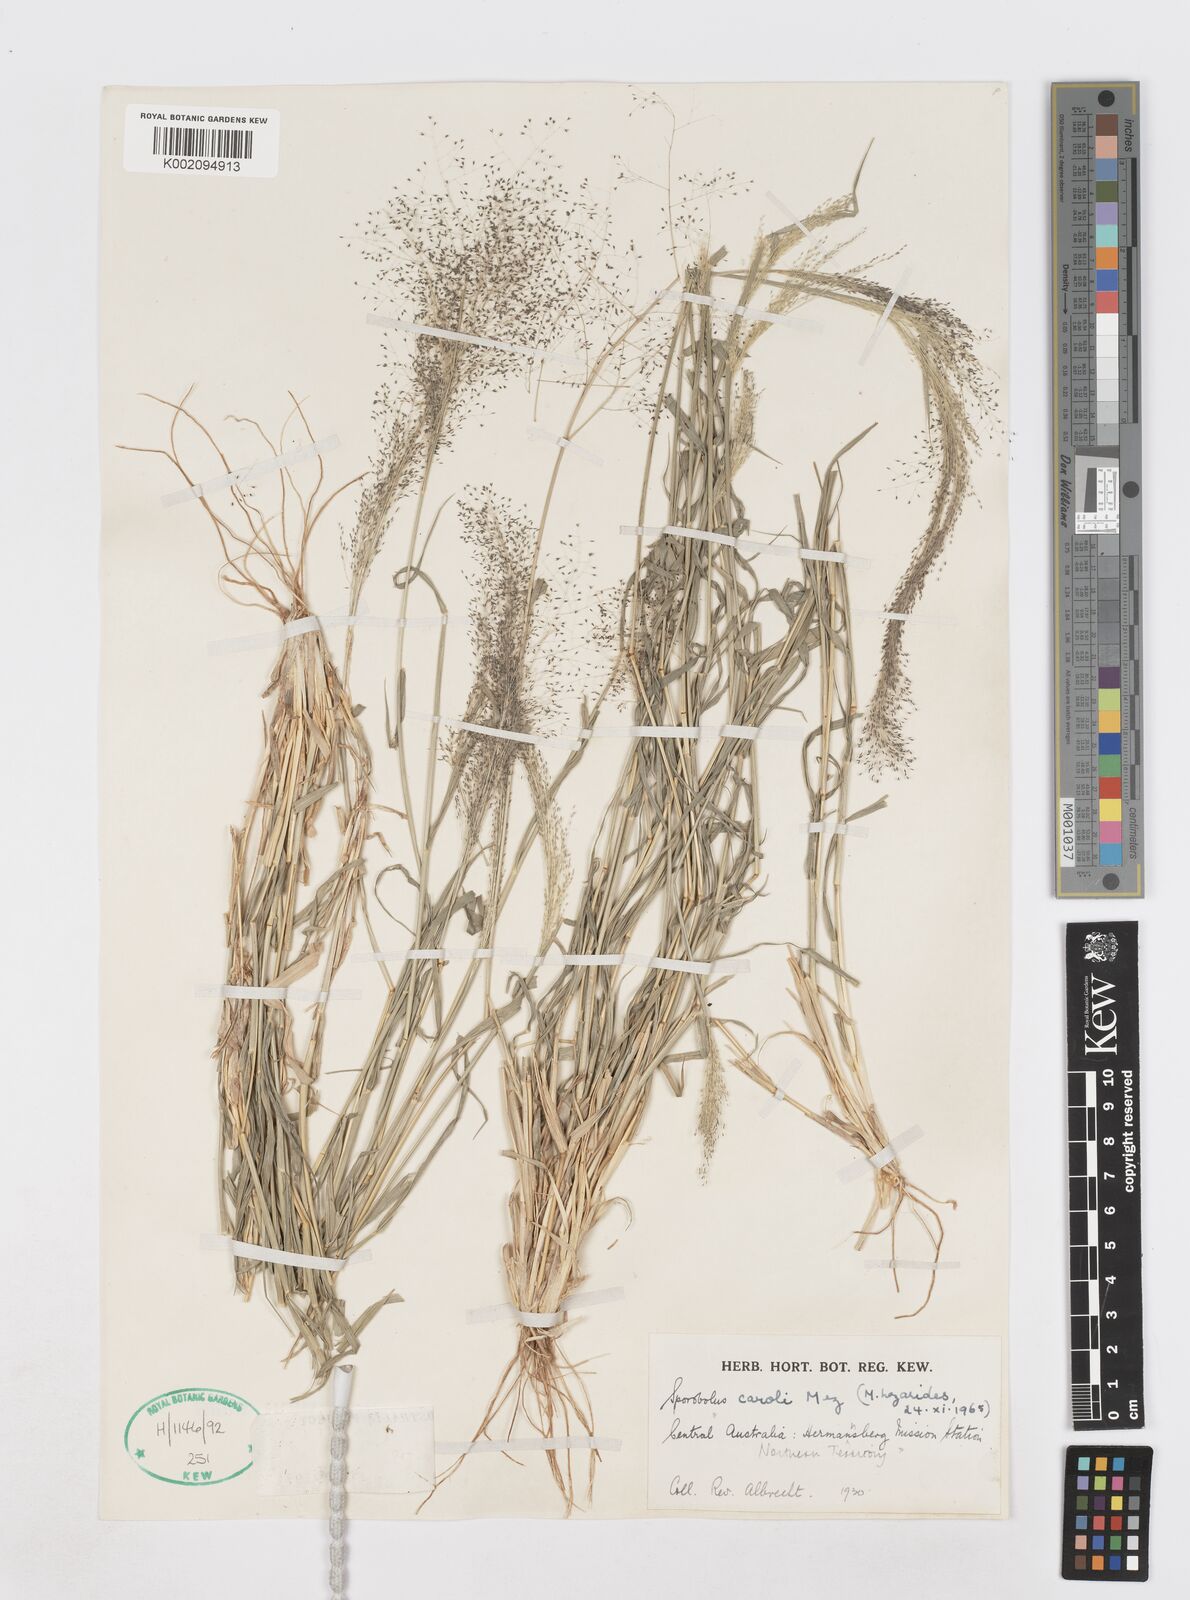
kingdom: Plantae
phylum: Tracheophyta
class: Liliopsida
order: Poales
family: Poaceae
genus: Sporobolus
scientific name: Sporobolus caroli
